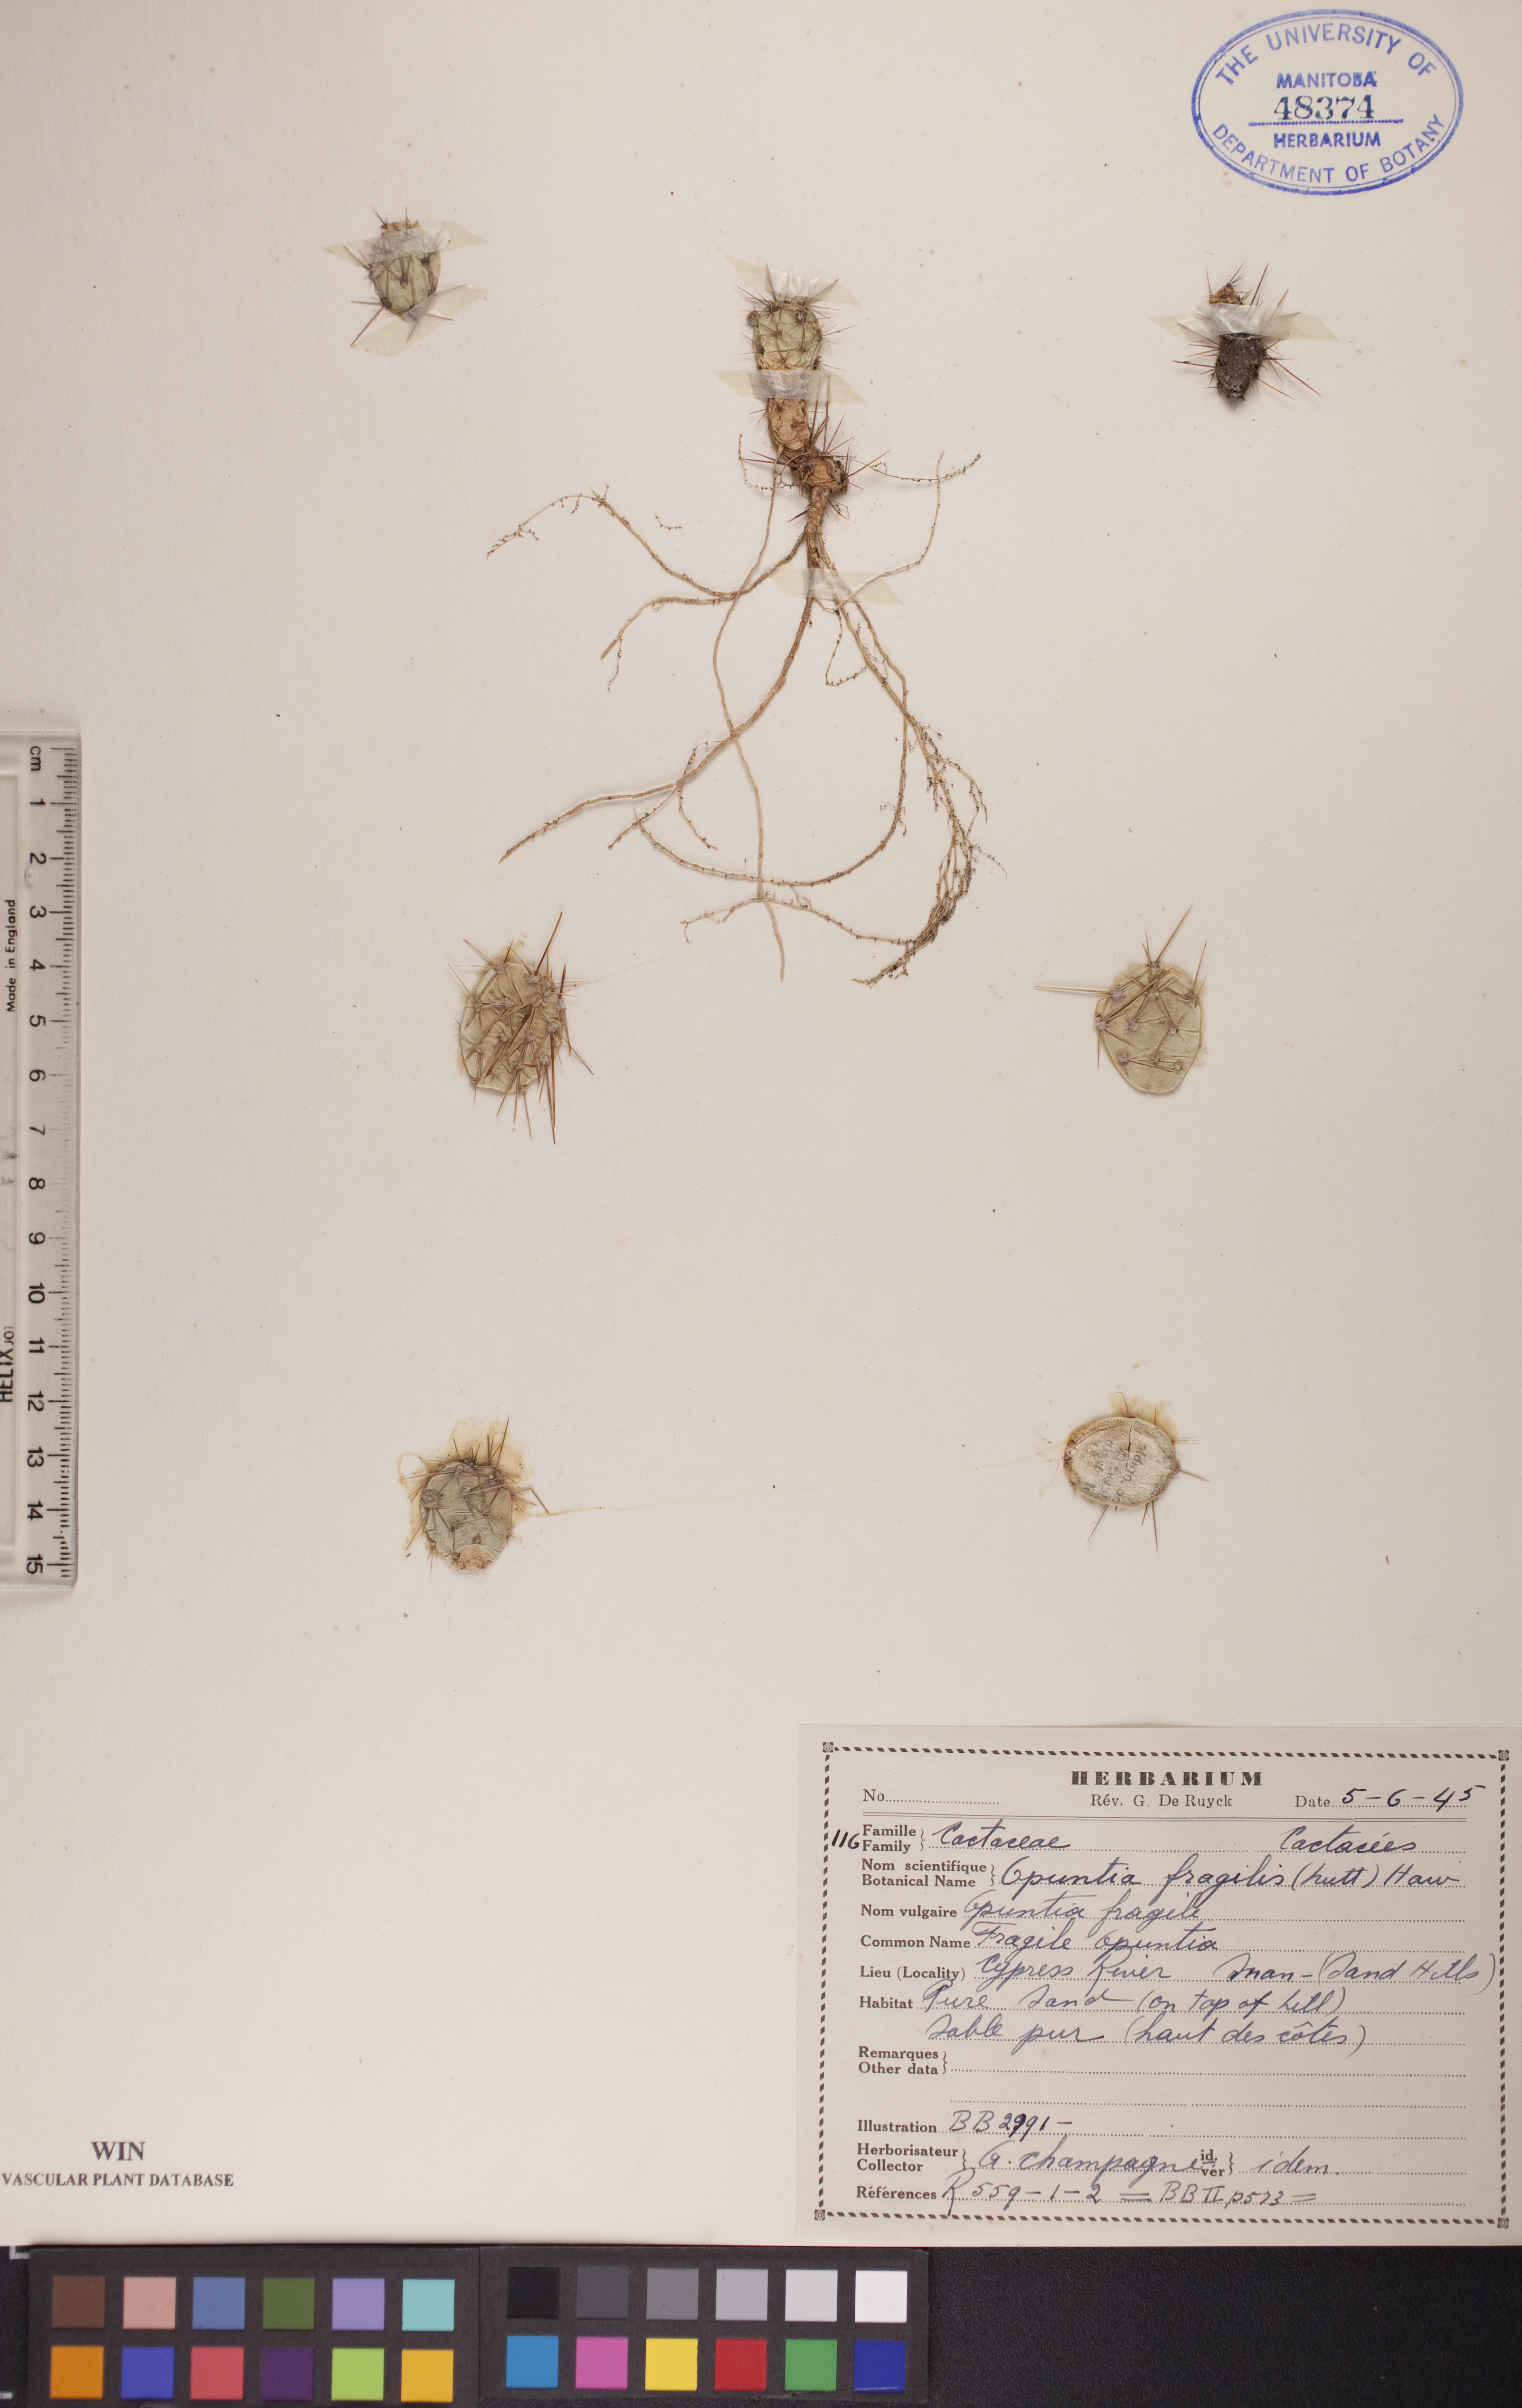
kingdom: Plantae
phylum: Tracheophyta
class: Magnoliopsida
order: Caryophyllales
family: Cactaceae
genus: Opuntia
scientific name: Opuntia fragilis
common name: Brittle cactus
